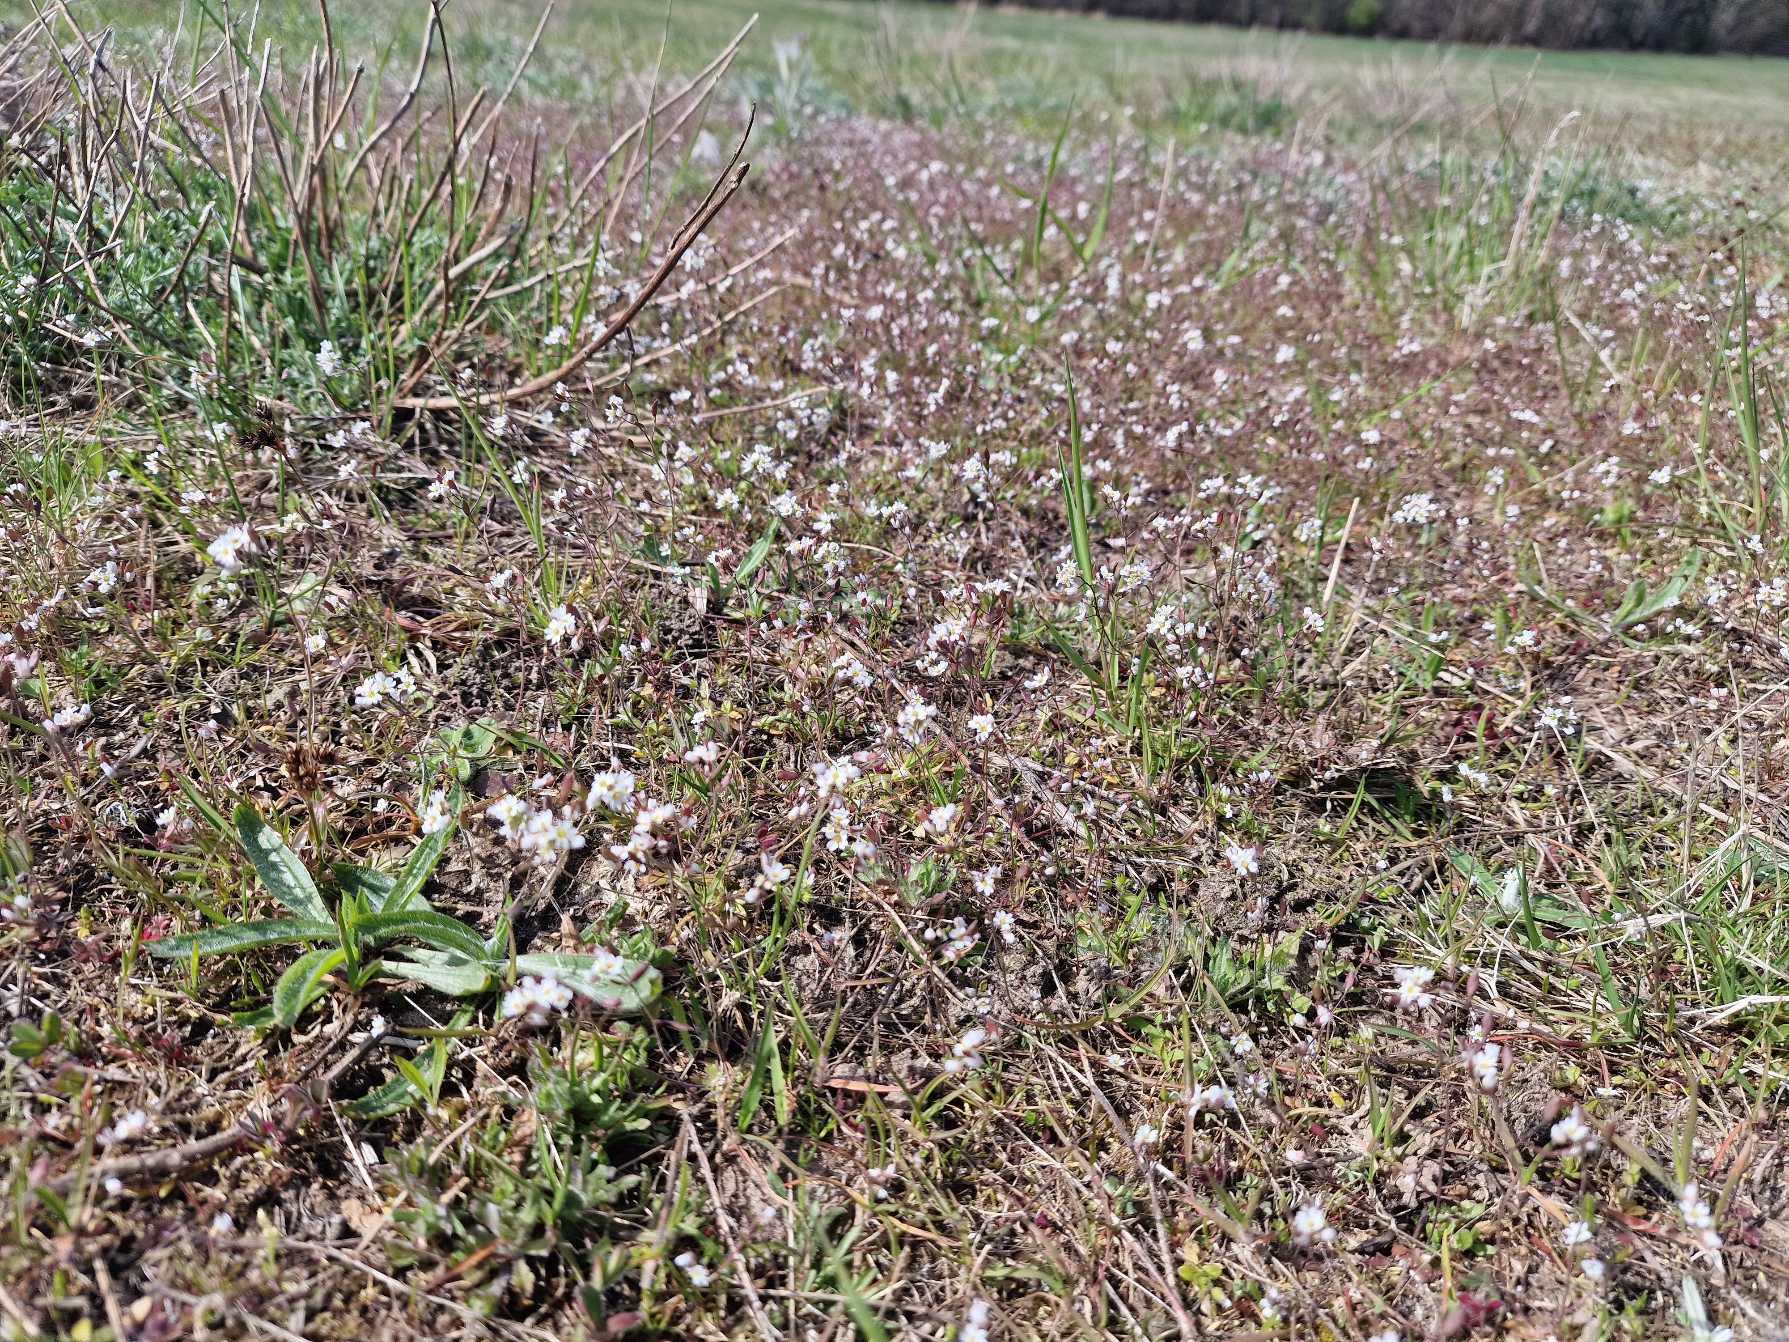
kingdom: Plantae
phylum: Tracheophyta
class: Magnoliopsida
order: Brassicales
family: Brassicaceae
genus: Draba
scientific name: Draba verna
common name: Vår-gæslingeblomst
